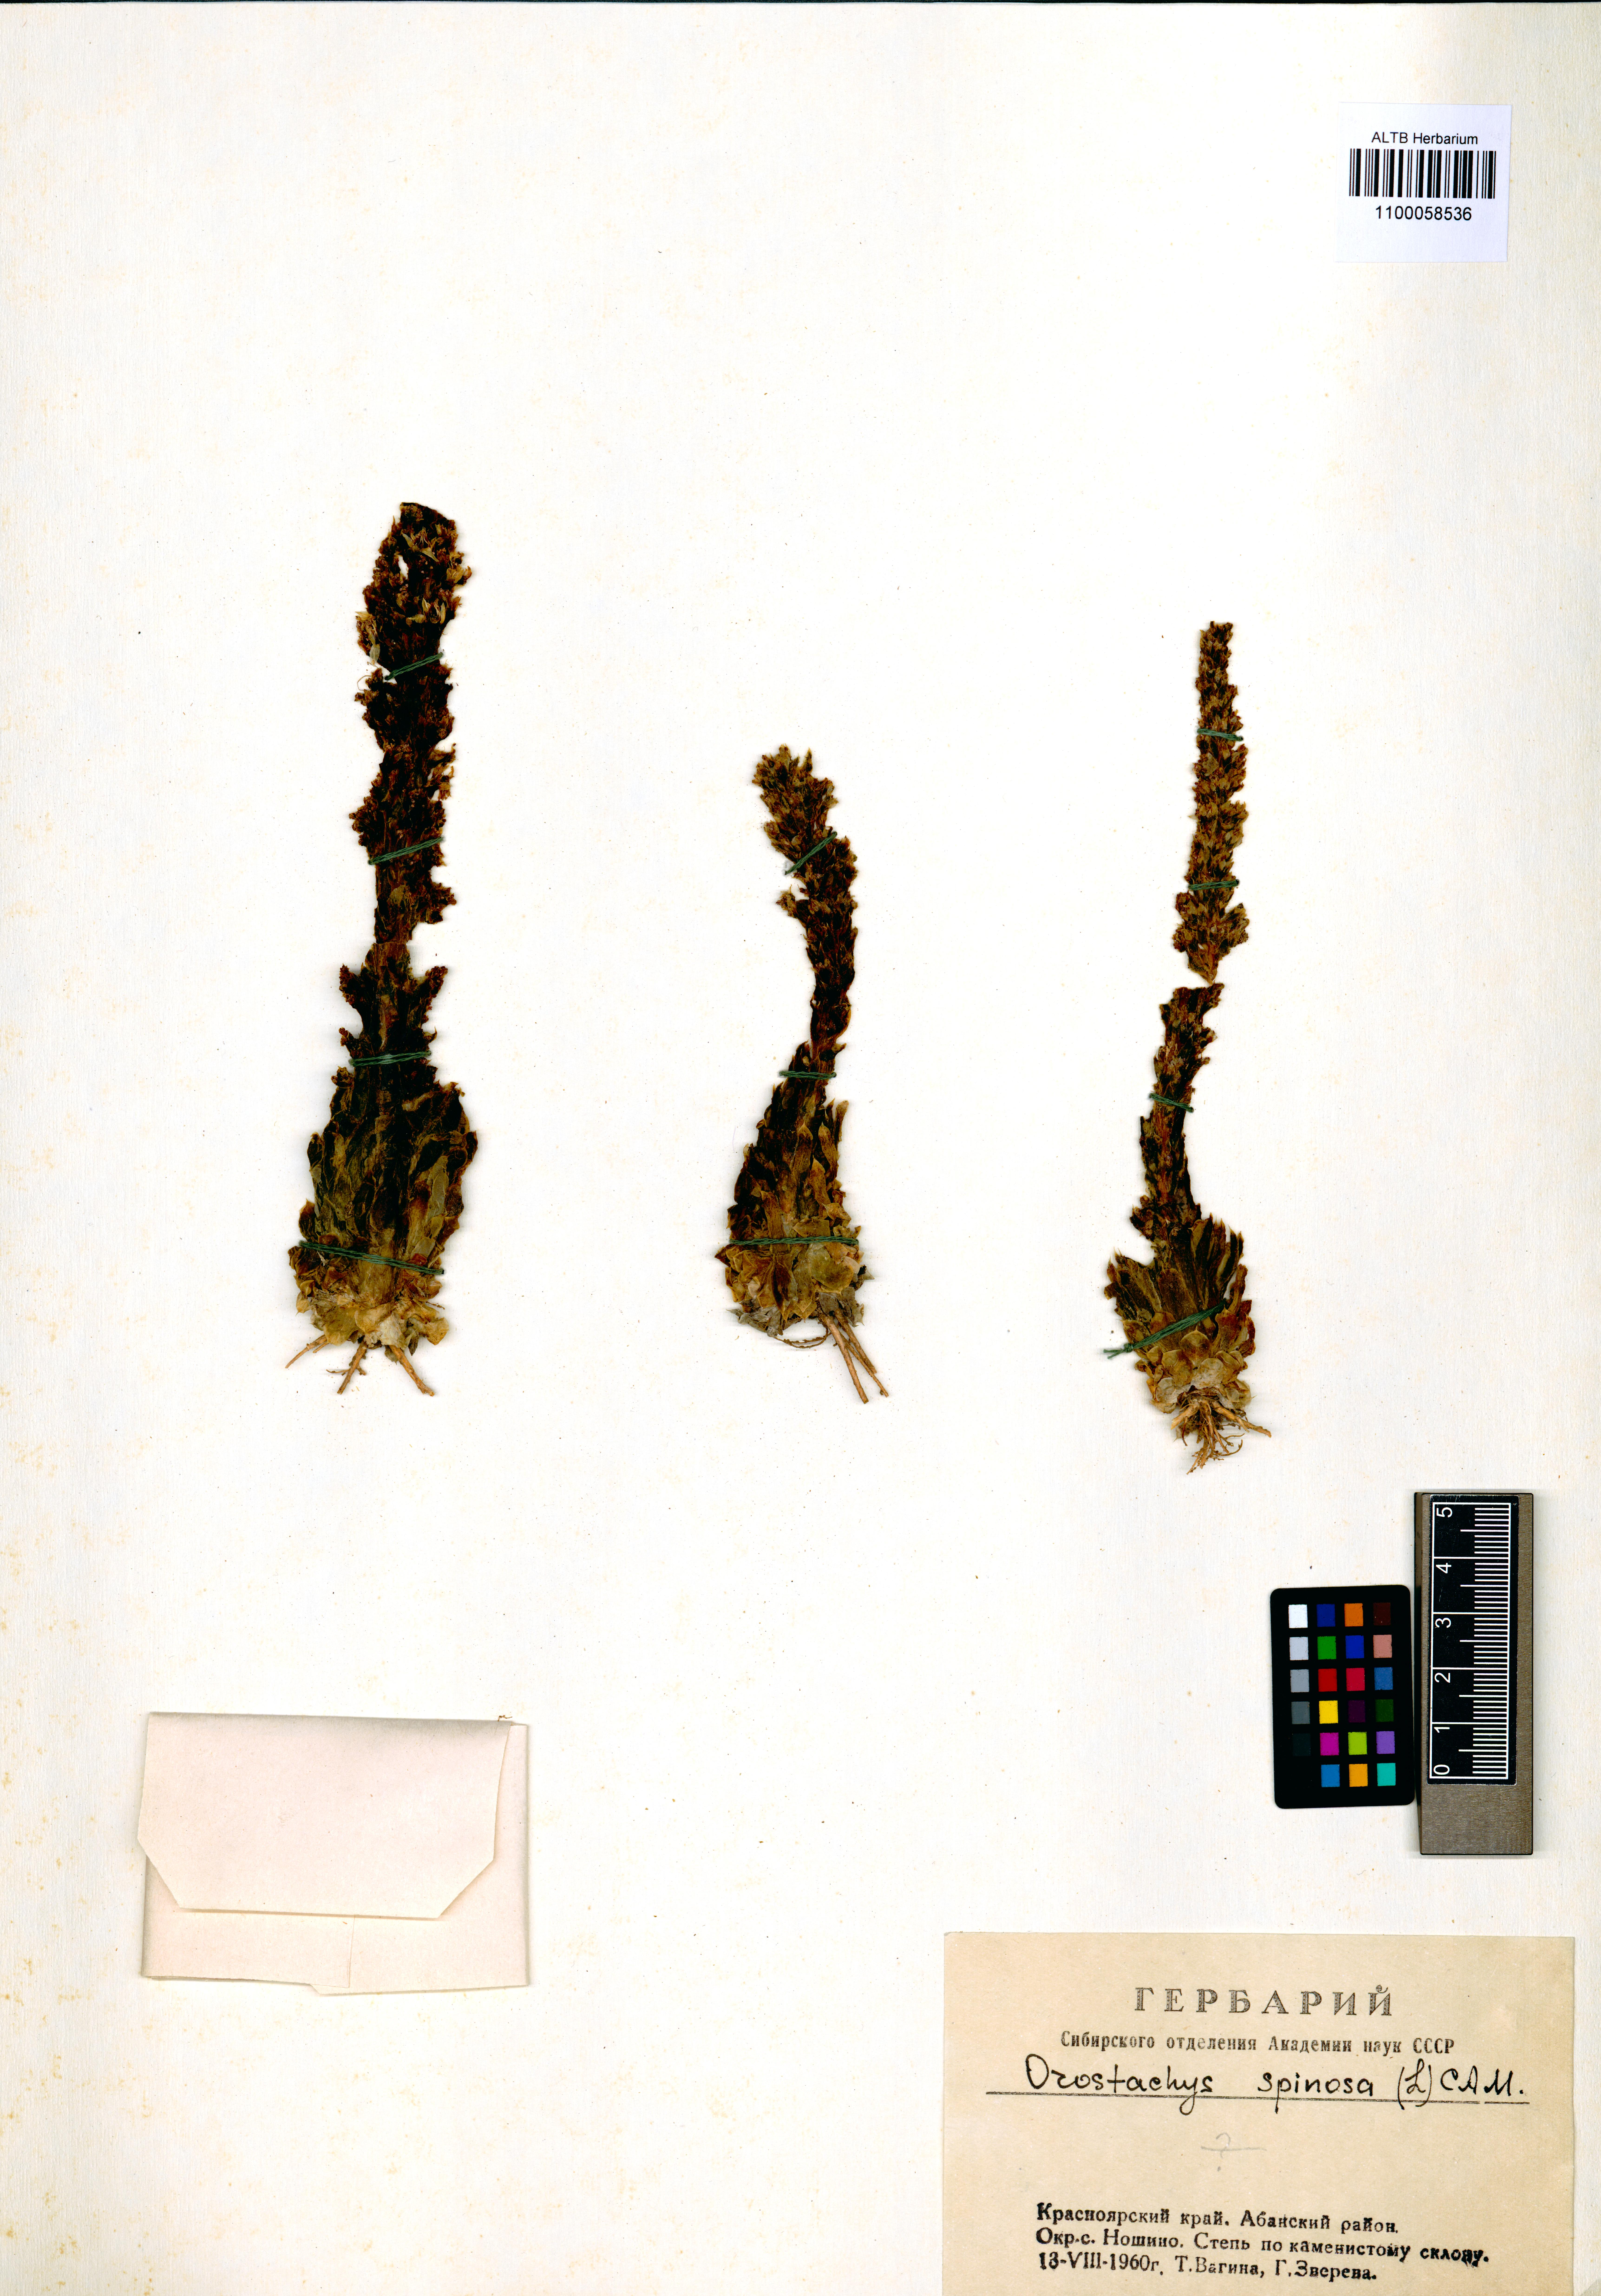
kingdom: Plantae
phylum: Tracheophyta
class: Magnoliopsida
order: Saxifragales
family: Crassulaceae
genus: Orostachys
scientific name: Orostachys spinosa
